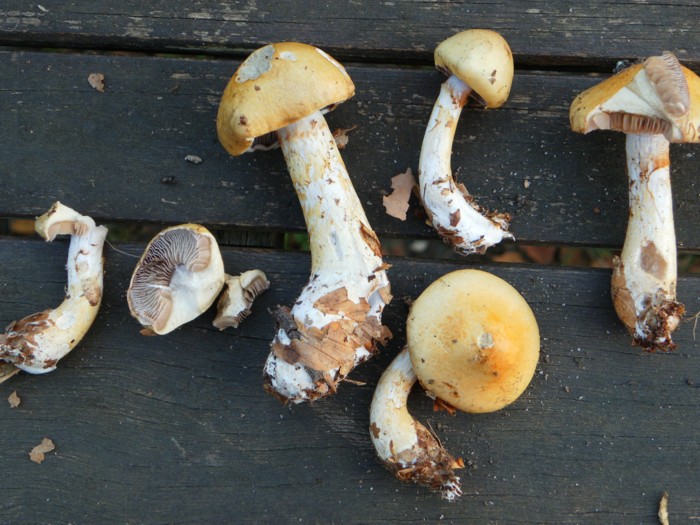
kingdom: Fungi
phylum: Basidiomycota
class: Agaricomycetes
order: Agaricales
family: Cortinariaceae
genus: Phlegmacium
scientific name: Phlegmacium triumphans
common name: gulbæltet slørhat
